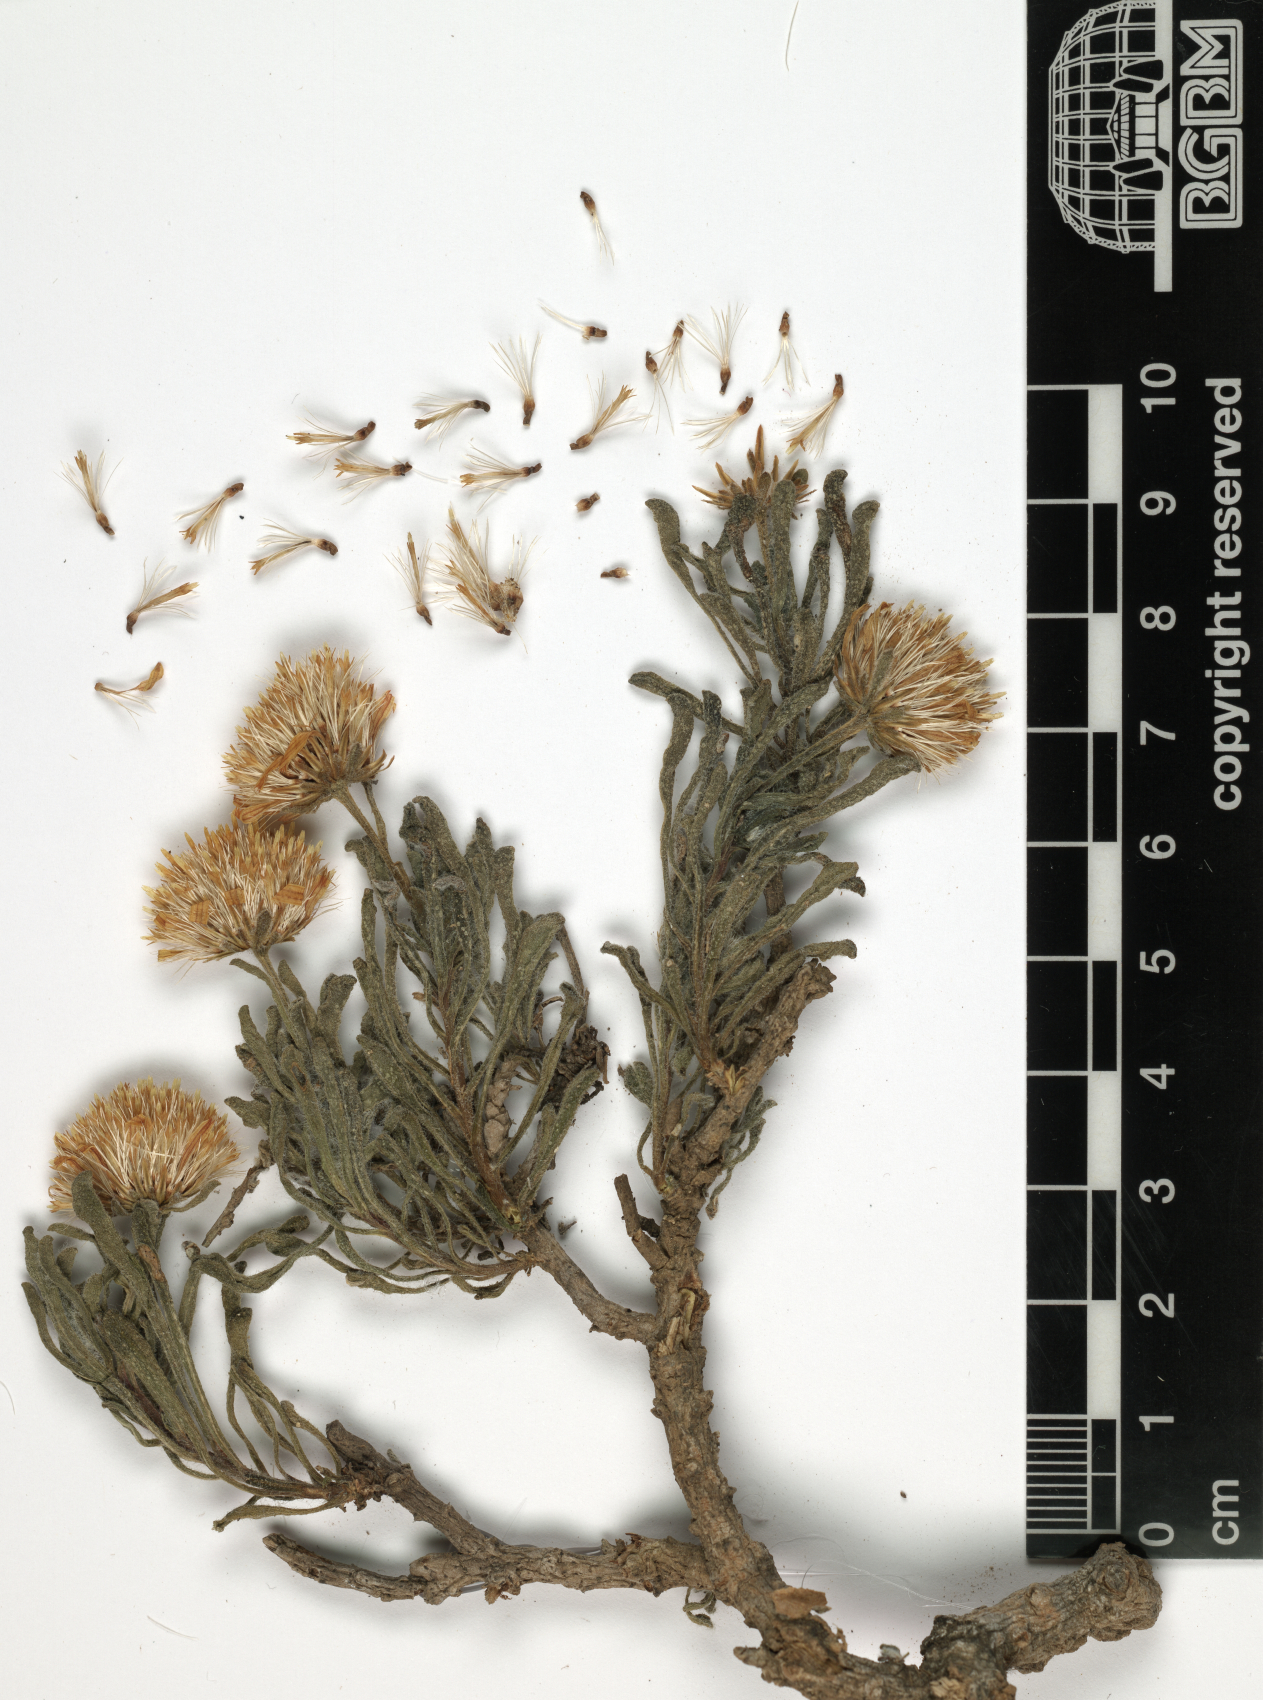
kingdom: Plantae
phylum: Tracheophyta
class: Magnoliopsida
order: Asterales
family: Asteraceae
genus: Pulicaria
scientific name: Pulicaria gamal-eldiniae
